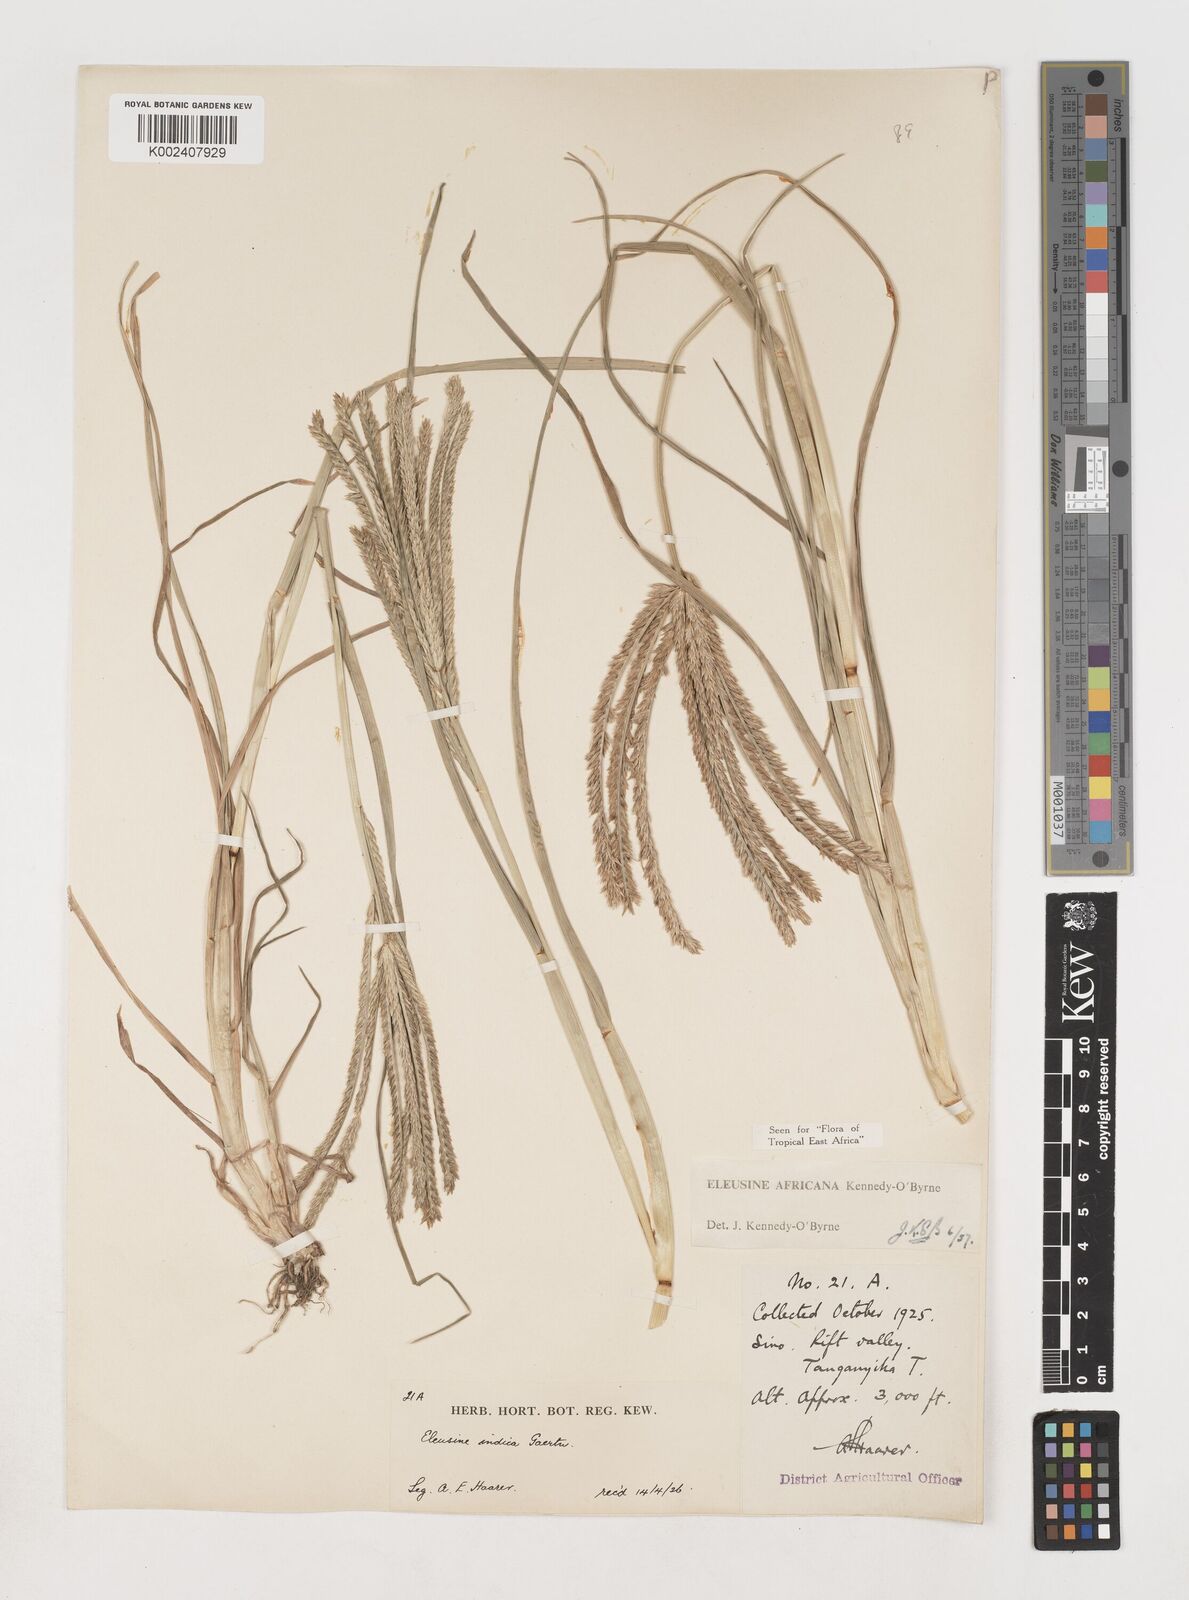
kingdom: Plantae
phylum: Tracheophyta
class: Liliopsida
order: Poales
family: Poaceae
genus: Eleusine
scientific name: Eleusine africana
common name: Wild african finger millet
